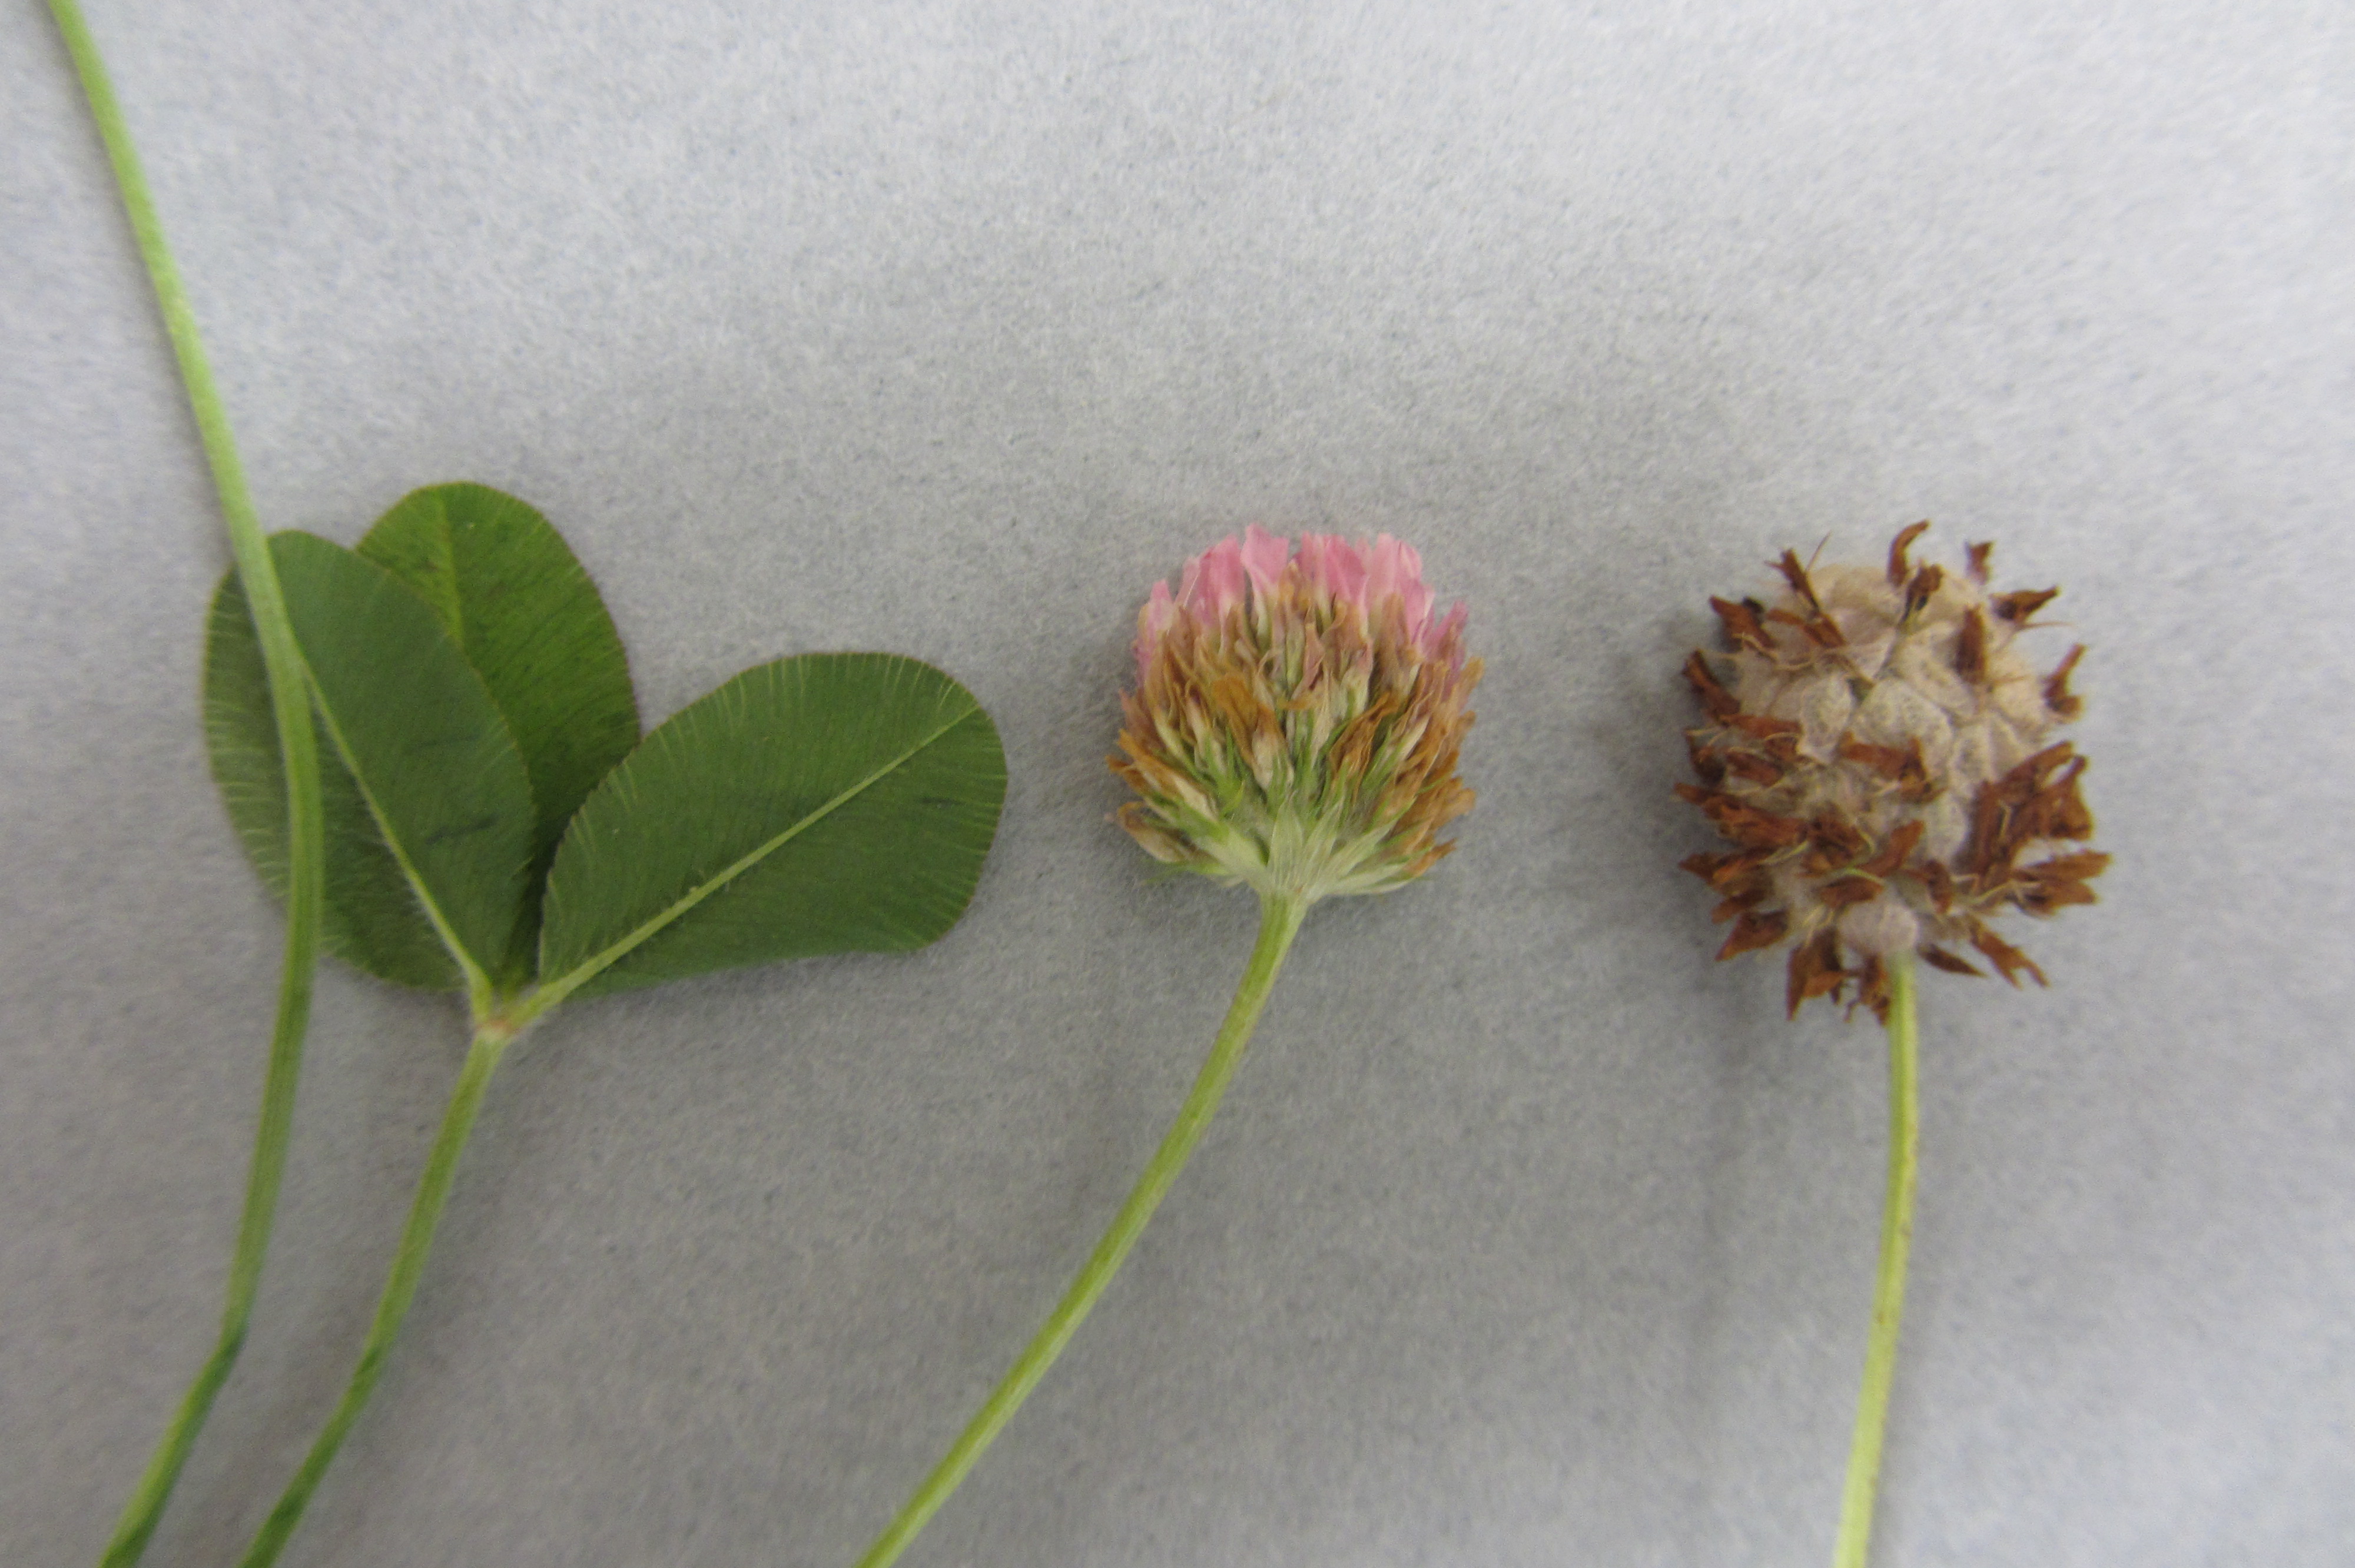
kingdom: Plantae
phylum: Tracheophyta
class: Magnoliopsida
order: Fabales
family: Fabaceae
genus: Trifolium
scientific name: Trifolium fragiferum
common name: Strawberry clover
